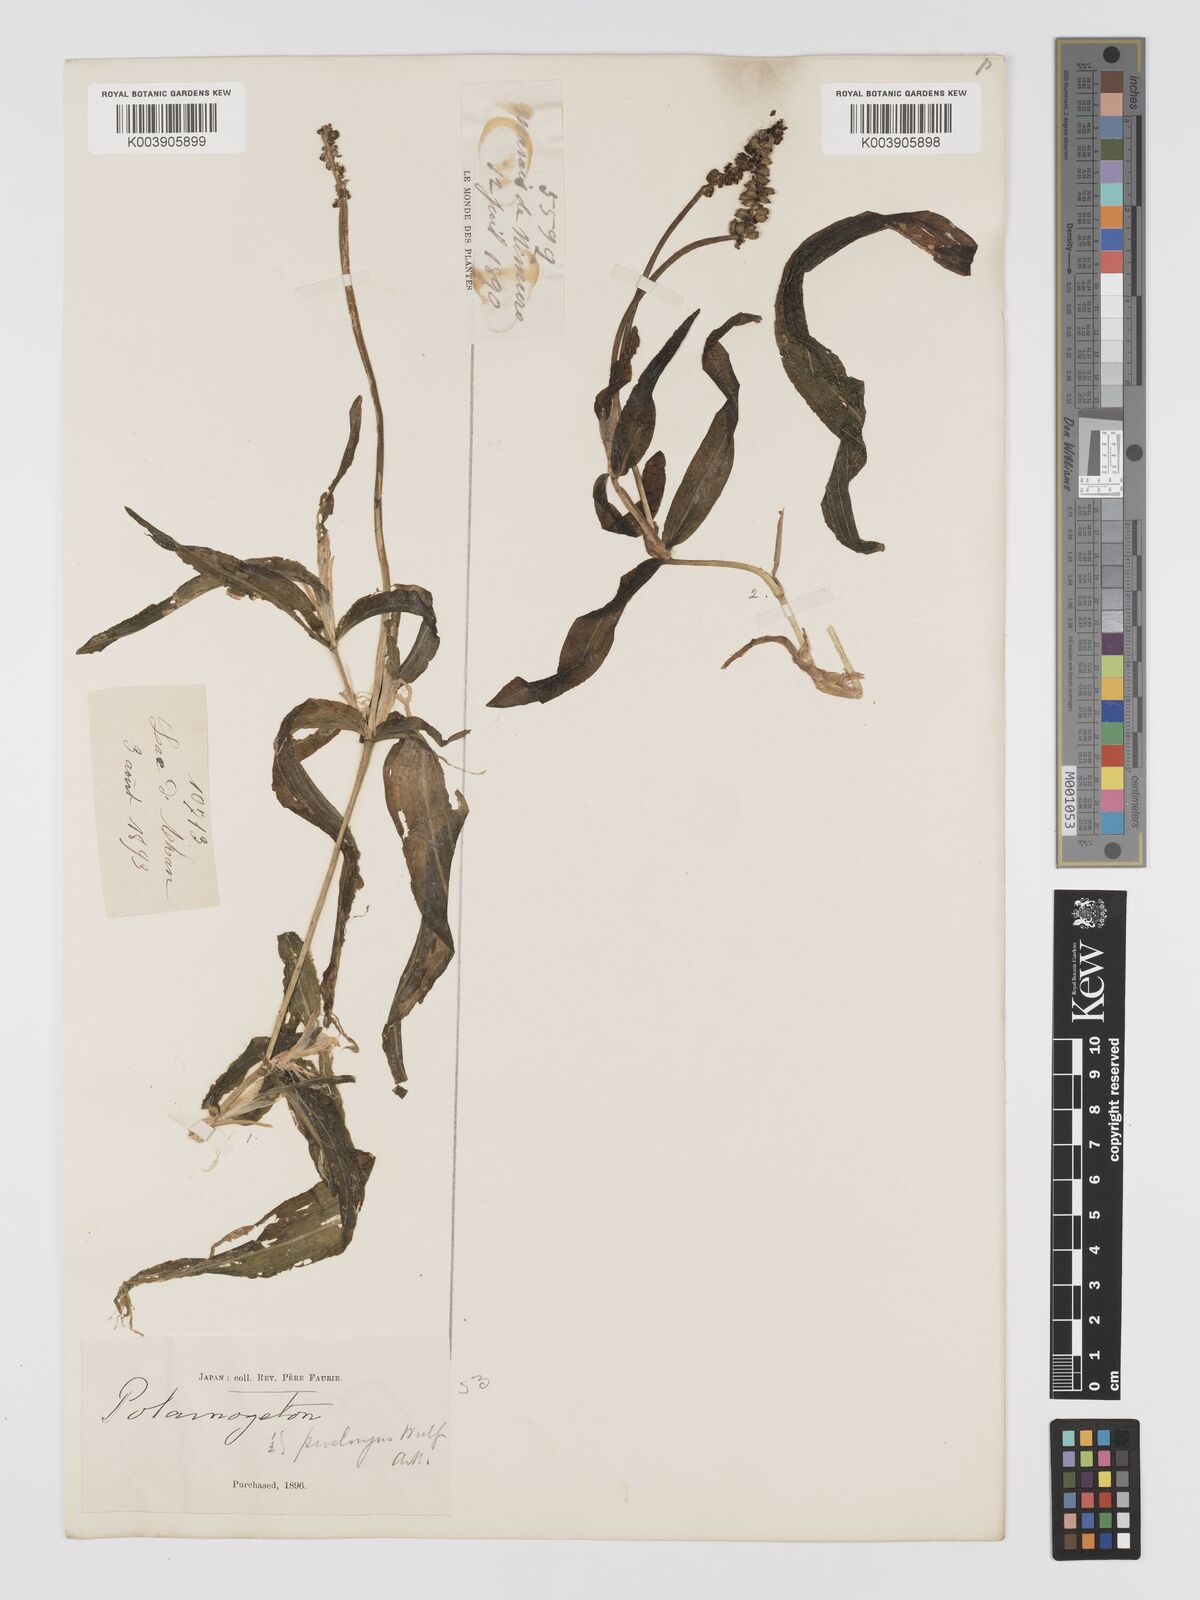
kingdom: Plantae
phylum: Tracheophyta
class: Liliopsida
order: Alismatales
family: Potamogetonaceae
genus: Potamogeton
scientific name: Potamogeton praelongus
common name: Long-stalked pondweed
